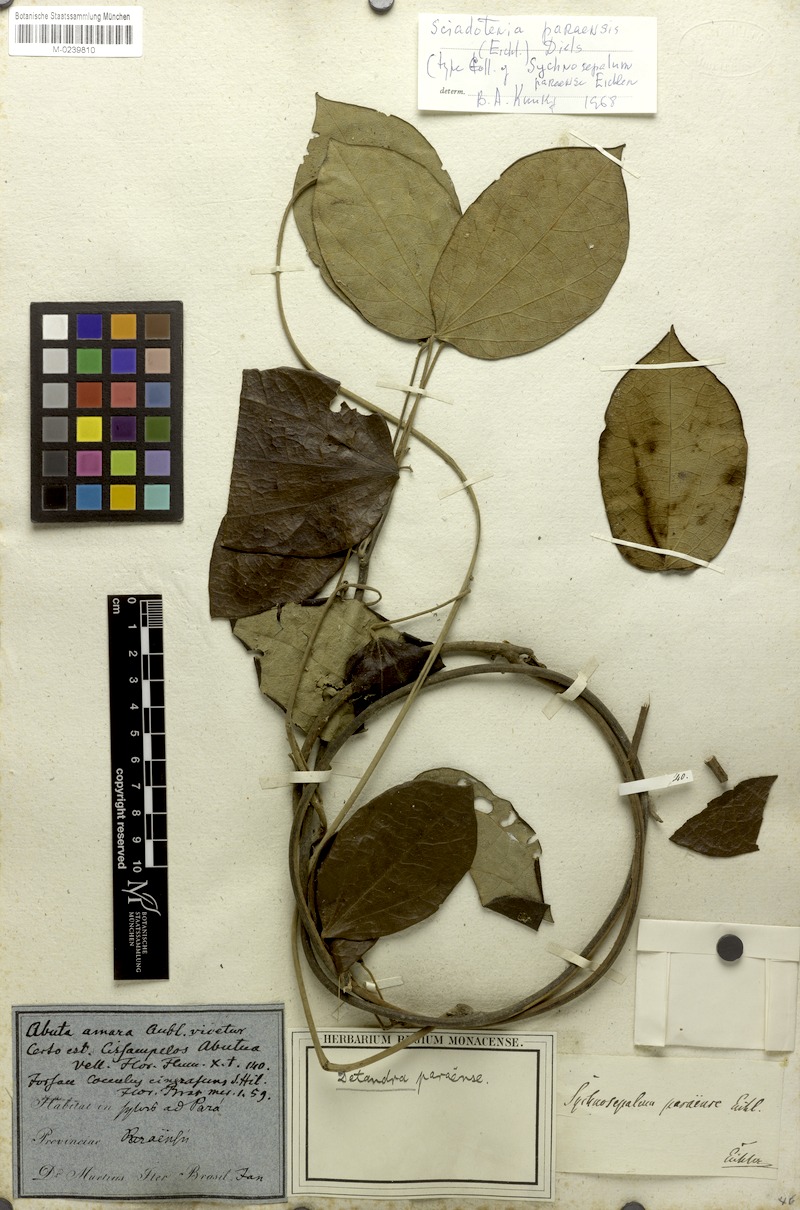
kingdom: Plantae
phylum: Tracheophyta
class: Magnoliopsida
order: Ranunculales
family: Menispermaceae
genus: Sciadotenia
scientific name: Sciadotenia paraensis
